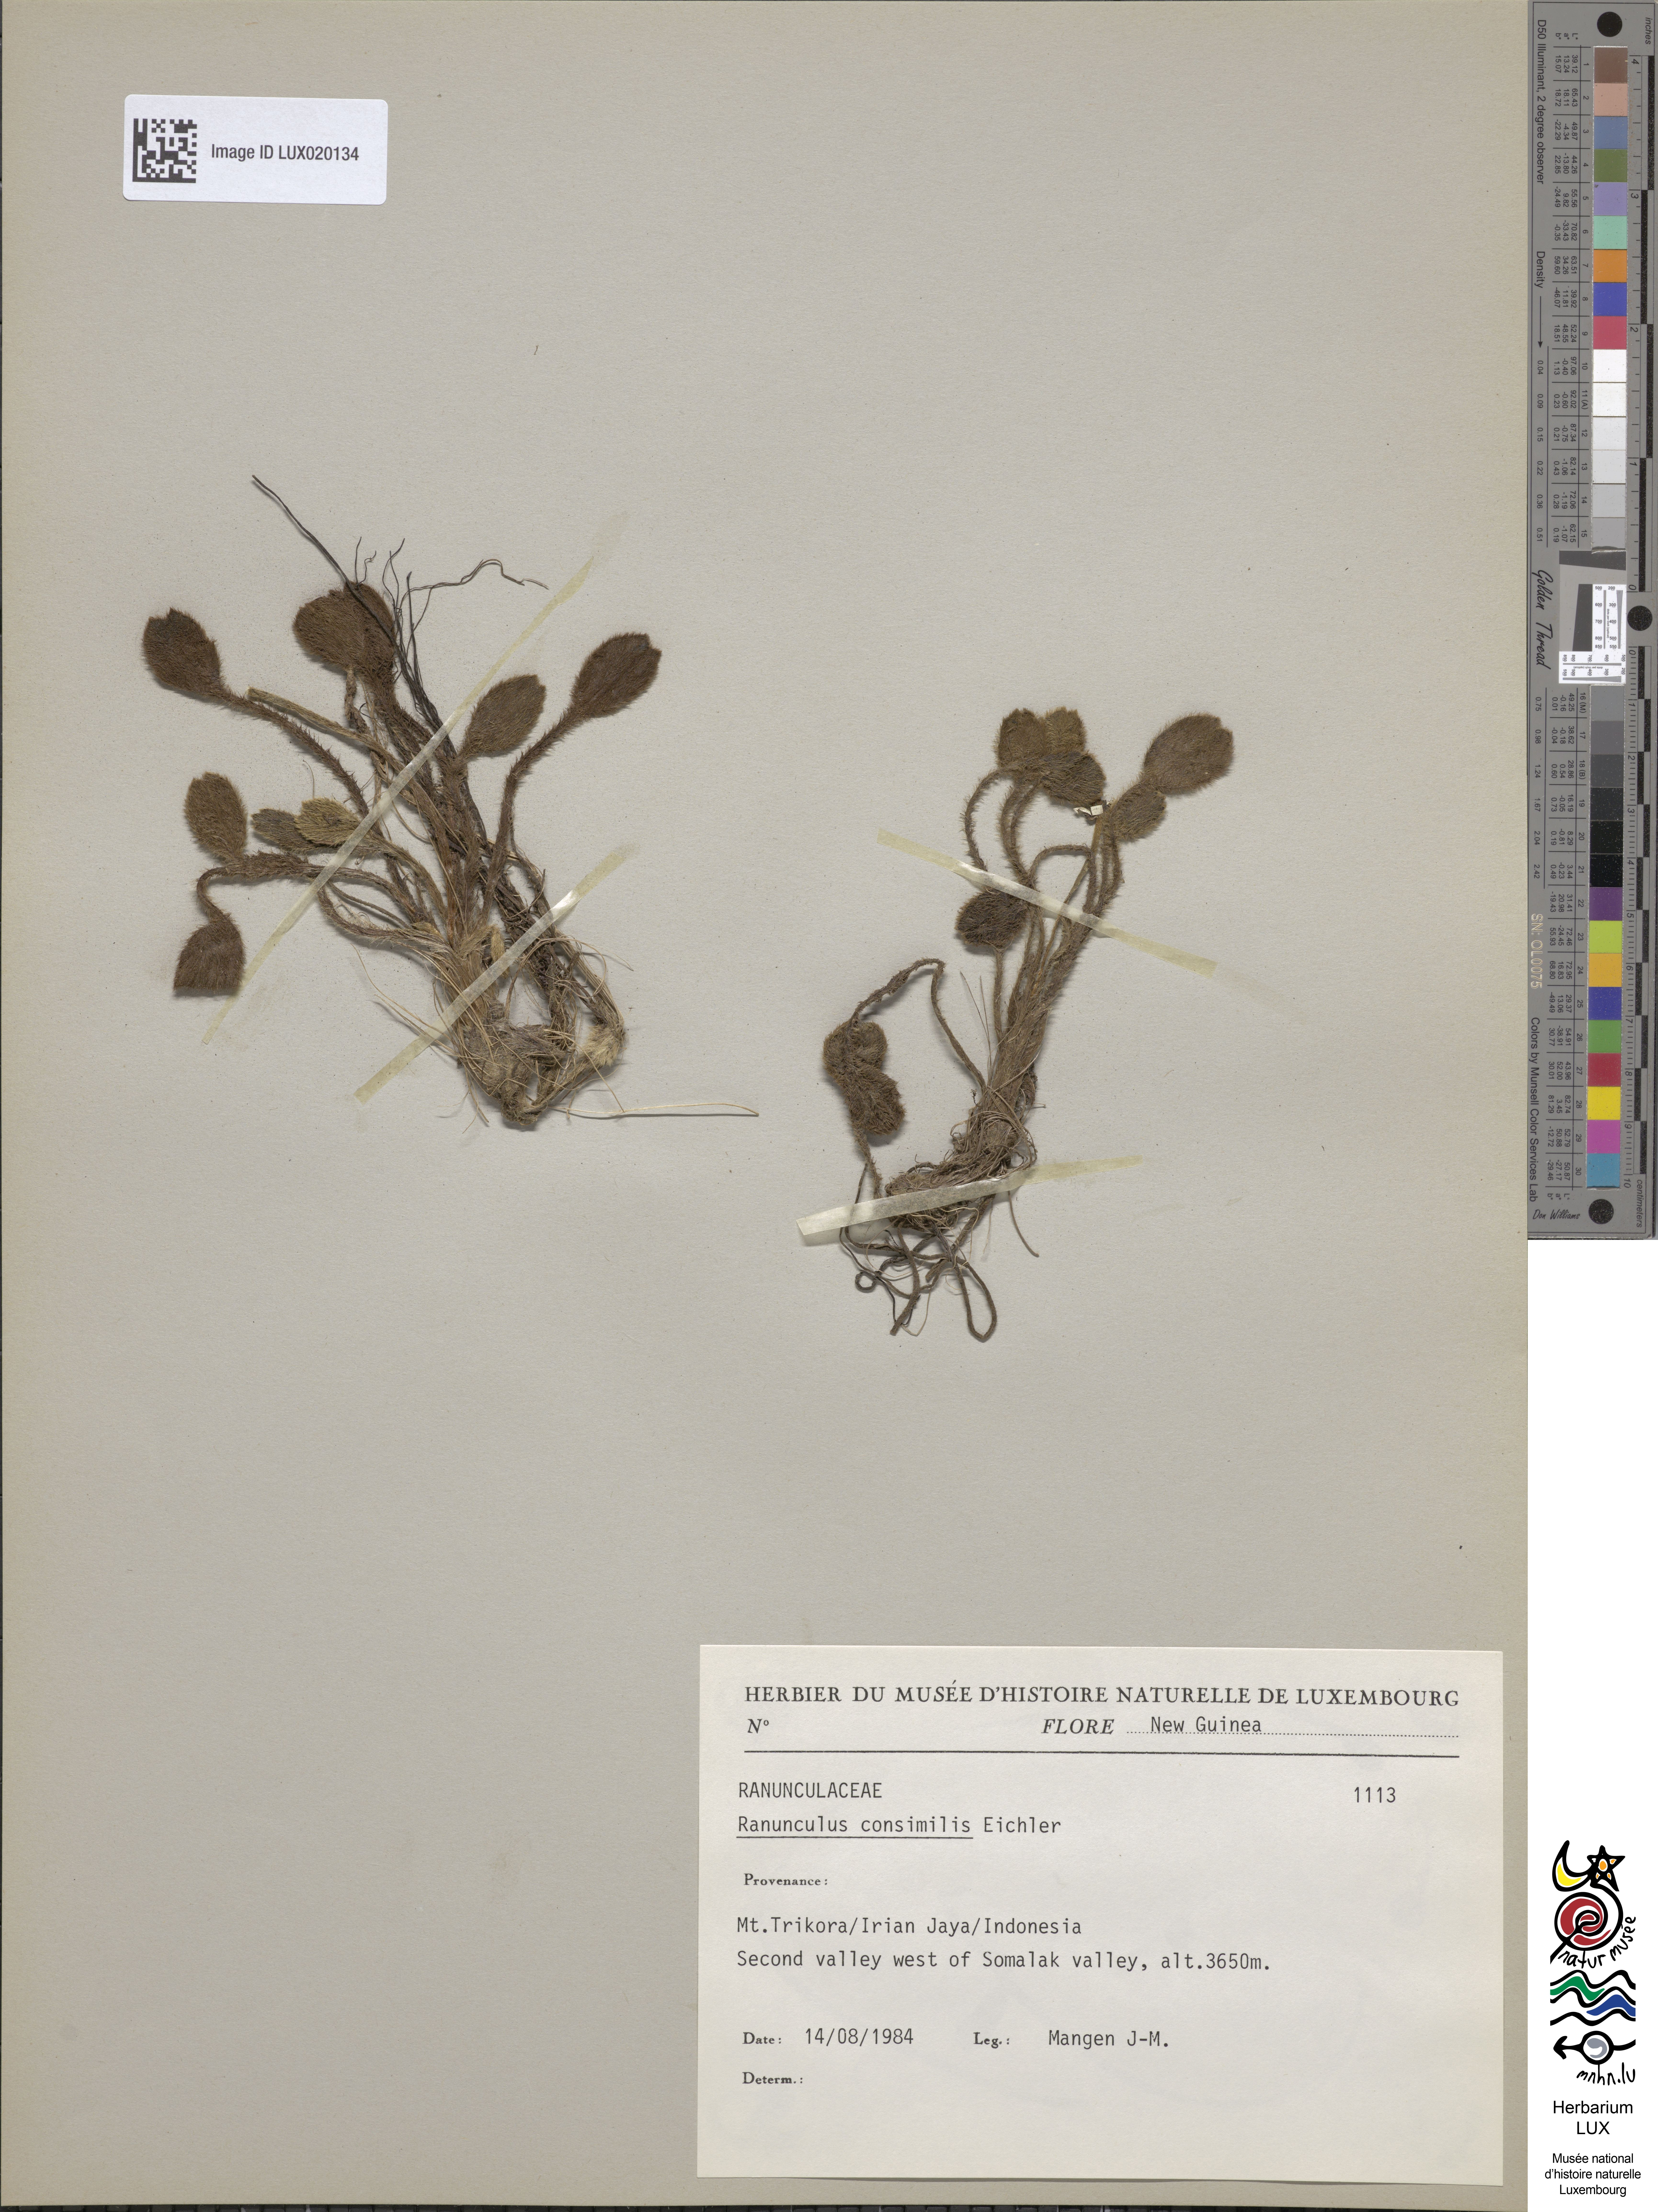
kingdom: Plantae
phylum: Tracheophyta
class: Magnoliopsida
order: Ranunculales
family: Ranunculaceae
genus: Ranunculus
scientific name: Ranunculus consimilis
